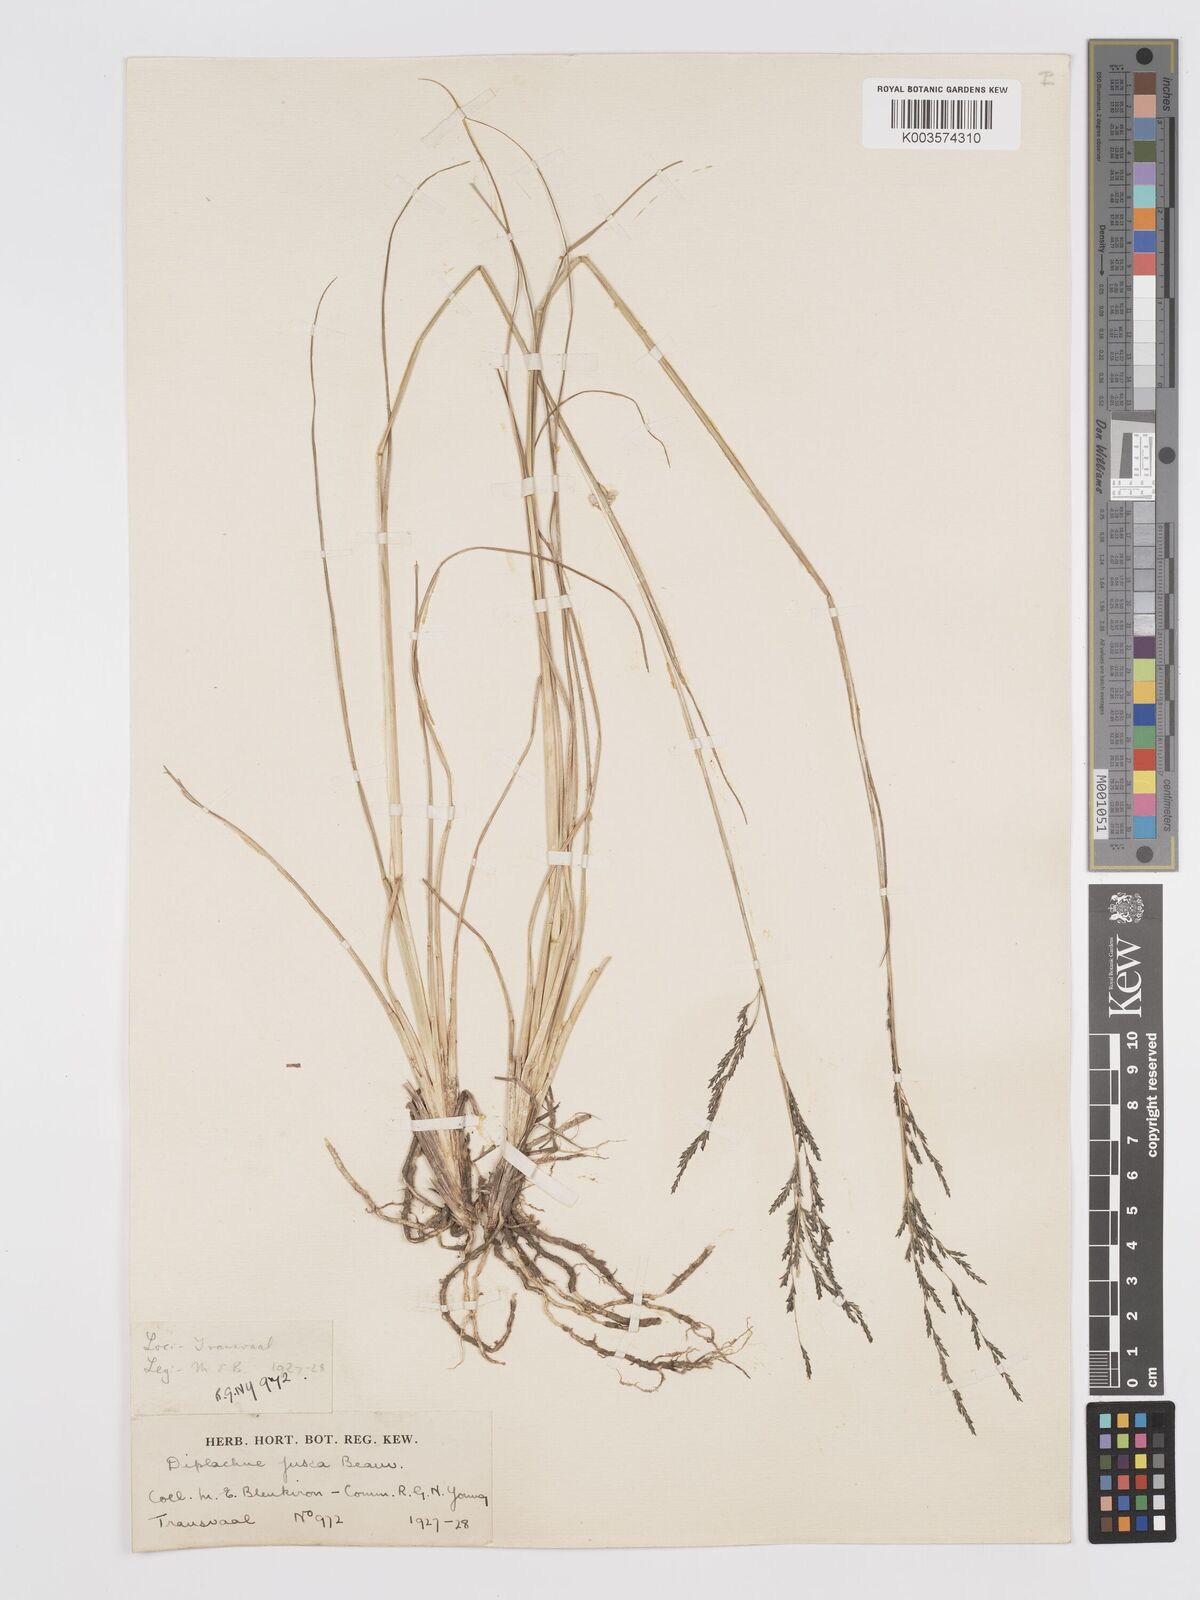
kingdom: Plantae
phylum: Tracheophyta
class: Liliopsida
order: Poales
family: Poaceae
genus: Eragrostis
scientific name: Eragrostis plana
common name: South african lovegrass
